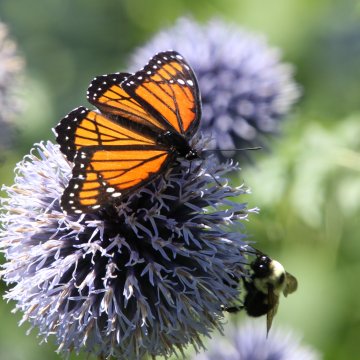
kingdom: Animalia
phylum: Arthropoda
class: Insecta
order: Lepidoptera
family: Nymphalidae
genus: Limenitis
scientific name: Limenitis archippus
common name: Viceroy
